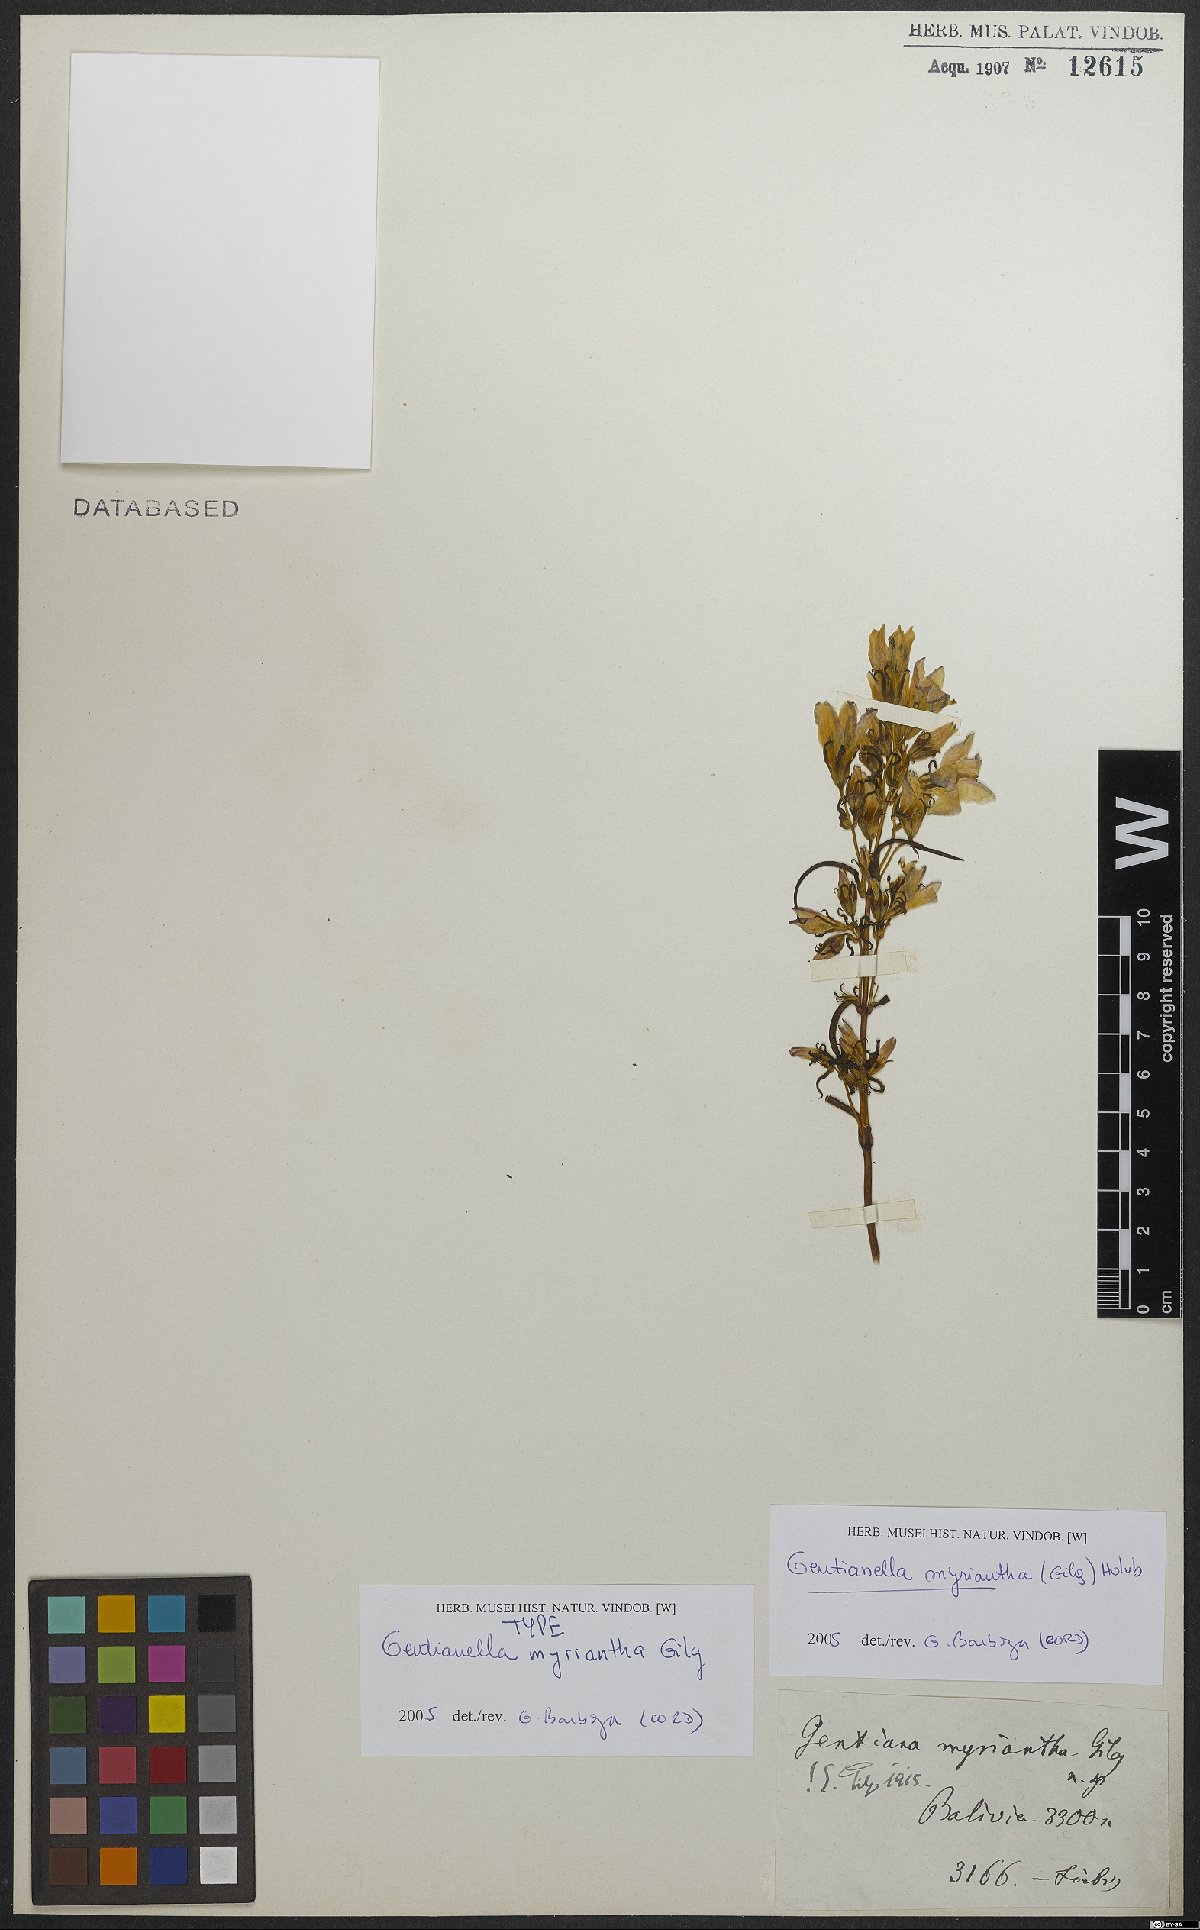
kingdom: Plantae
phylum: Tracheophyta
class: Magnoliopsida
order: Gentianales
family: Gentianaceae
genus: Gentianella
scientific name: Gentianella myriantha
